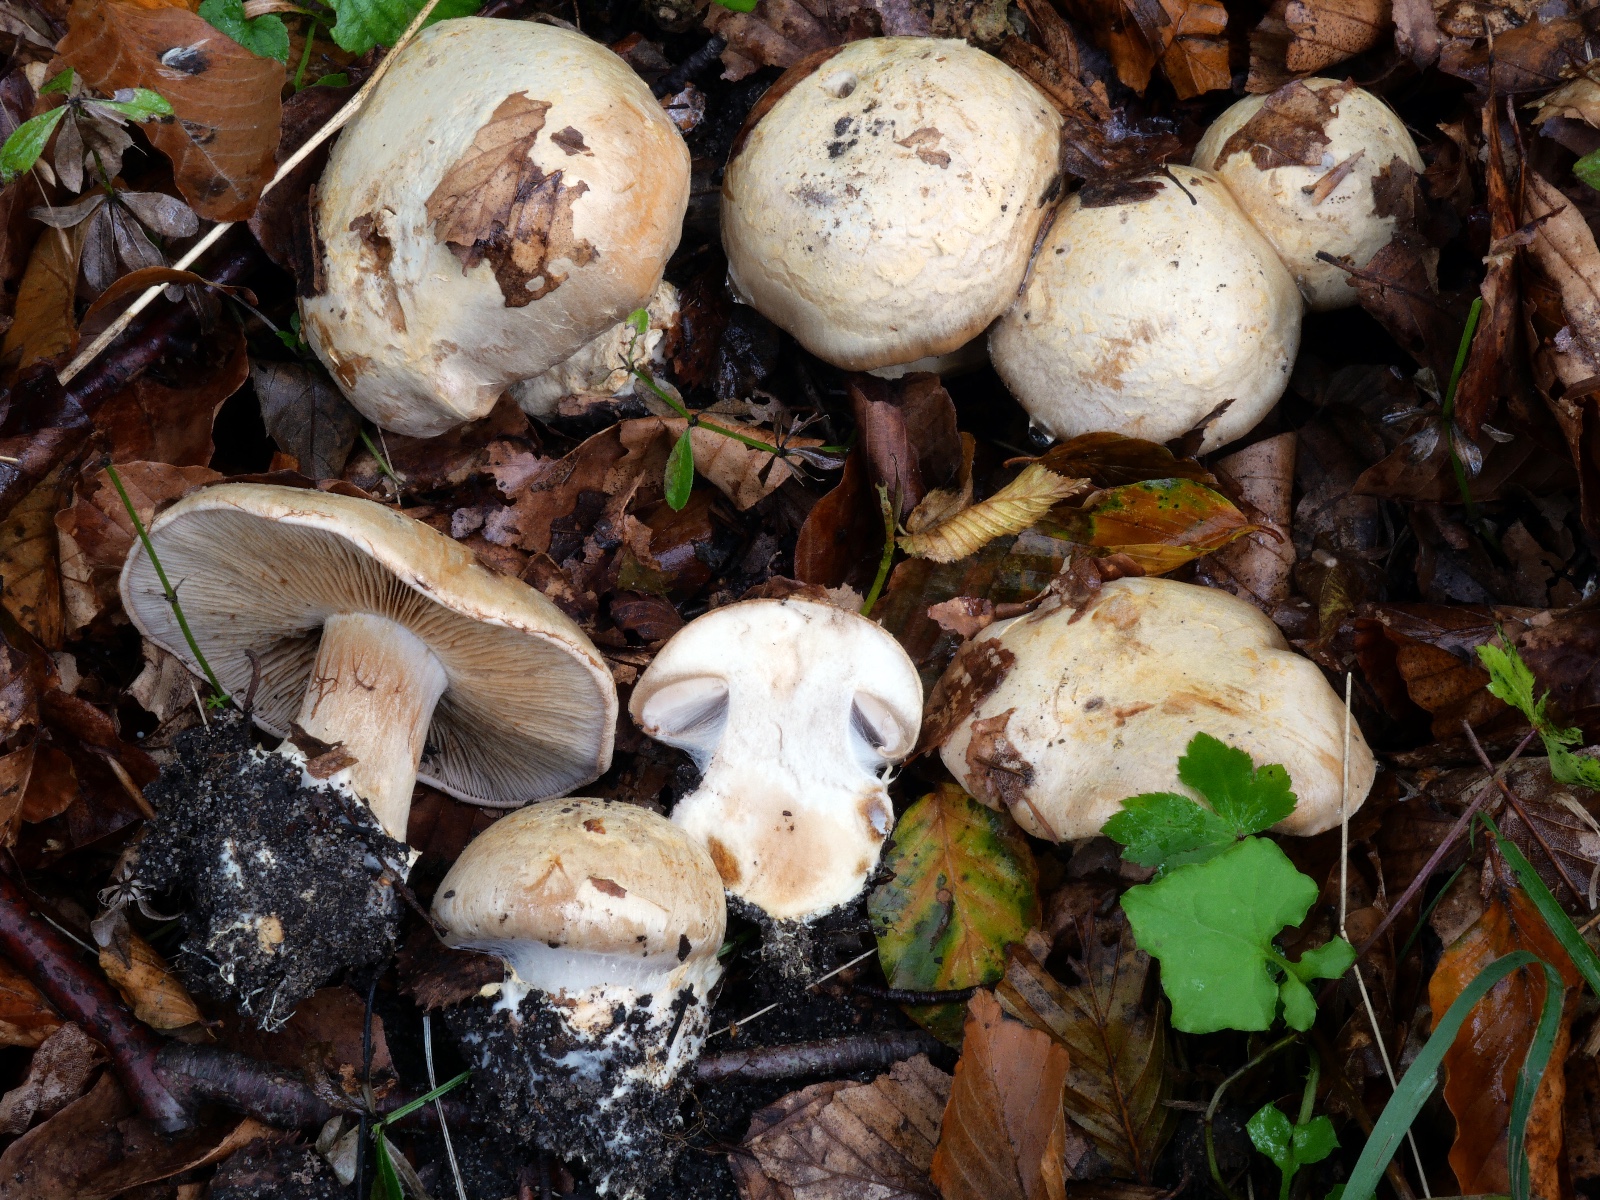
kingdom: Fungi
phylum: Basidiomycota
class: Agaricomycetes
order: Agaricales
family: Cortinariaceae
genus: Cortinarius
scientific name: Cortinarius foetens
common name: stribet slørhat
